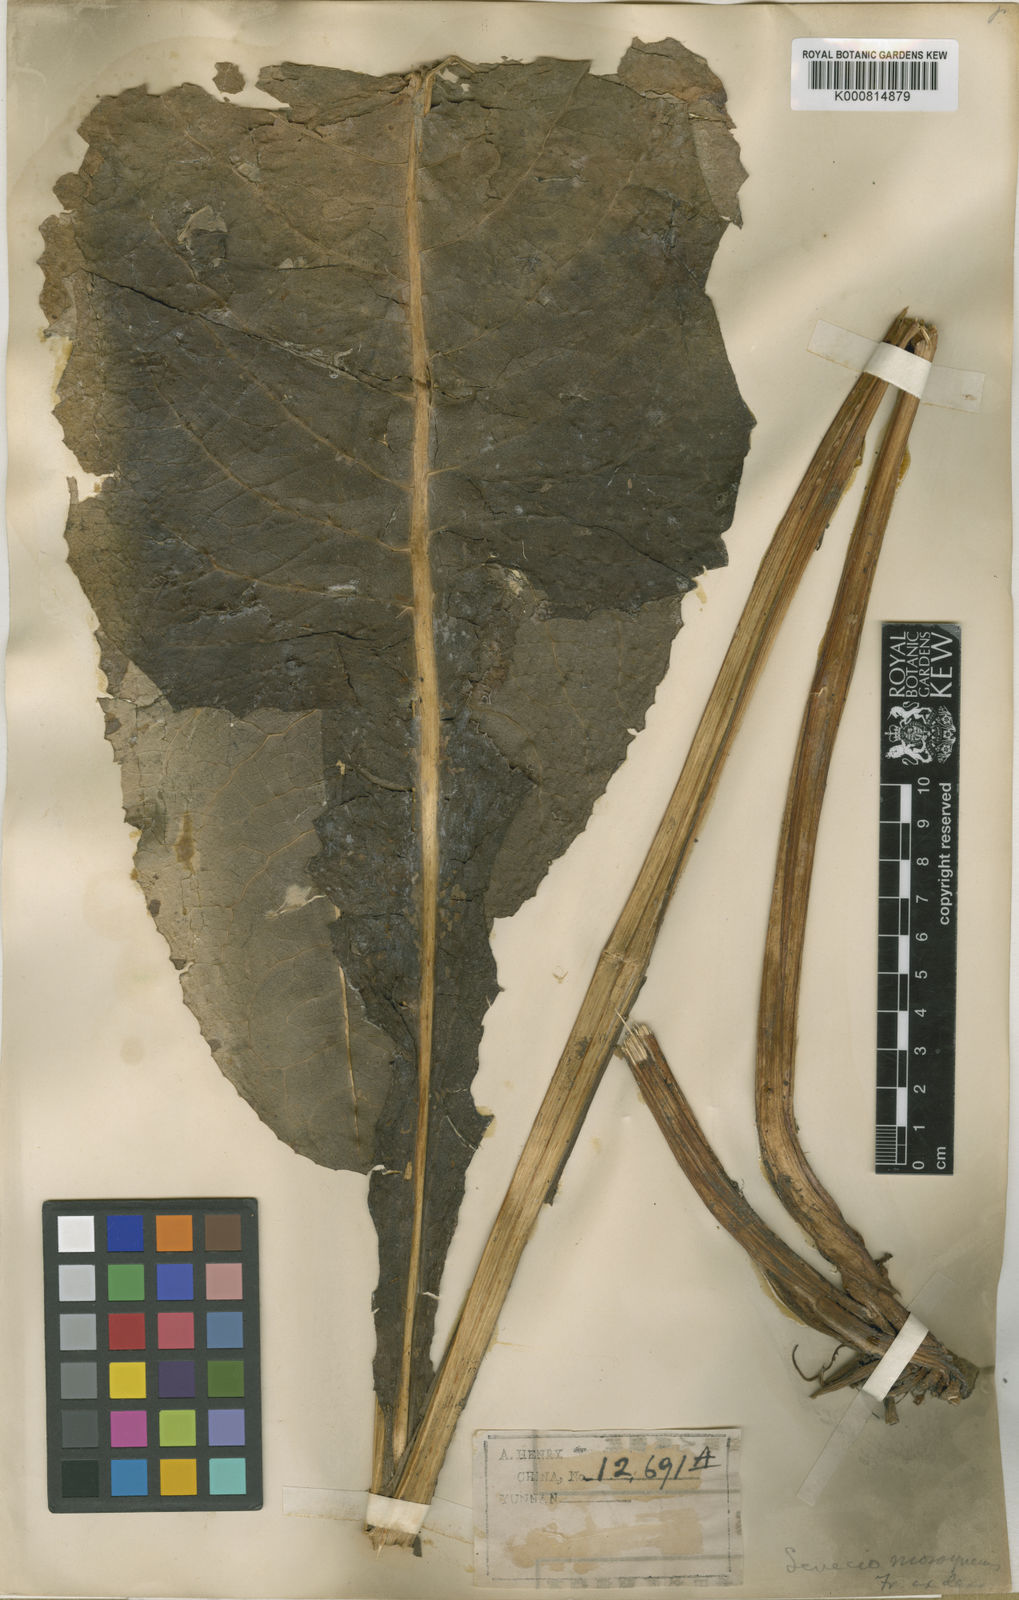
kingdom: Plantae
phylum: Tracheophyta
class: Magnoliopsida
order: Asterales
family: Asteraceae
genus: Ligularia
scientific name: Ligularia longifolia
